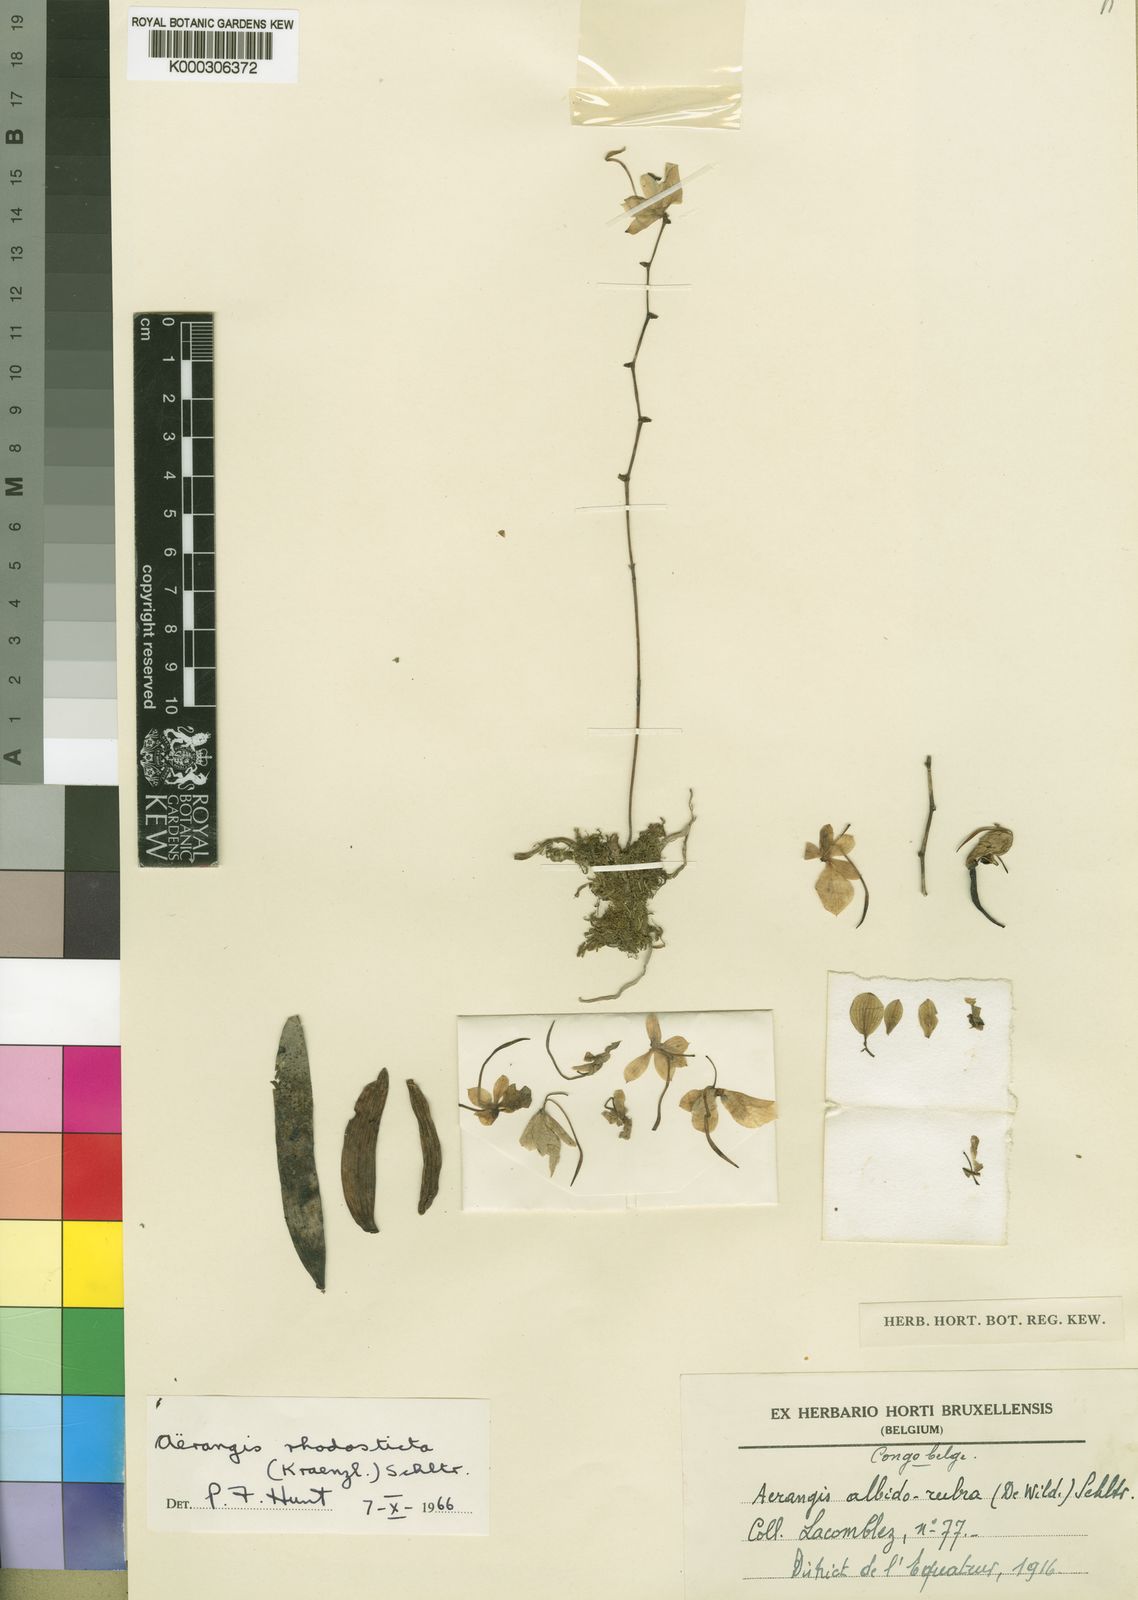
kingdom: Plantae
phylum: Tracheophyta
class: Liliopsida
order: Asparagales
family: Orchidaceae
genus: Aerangis
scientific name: Aerangis luteoalba
